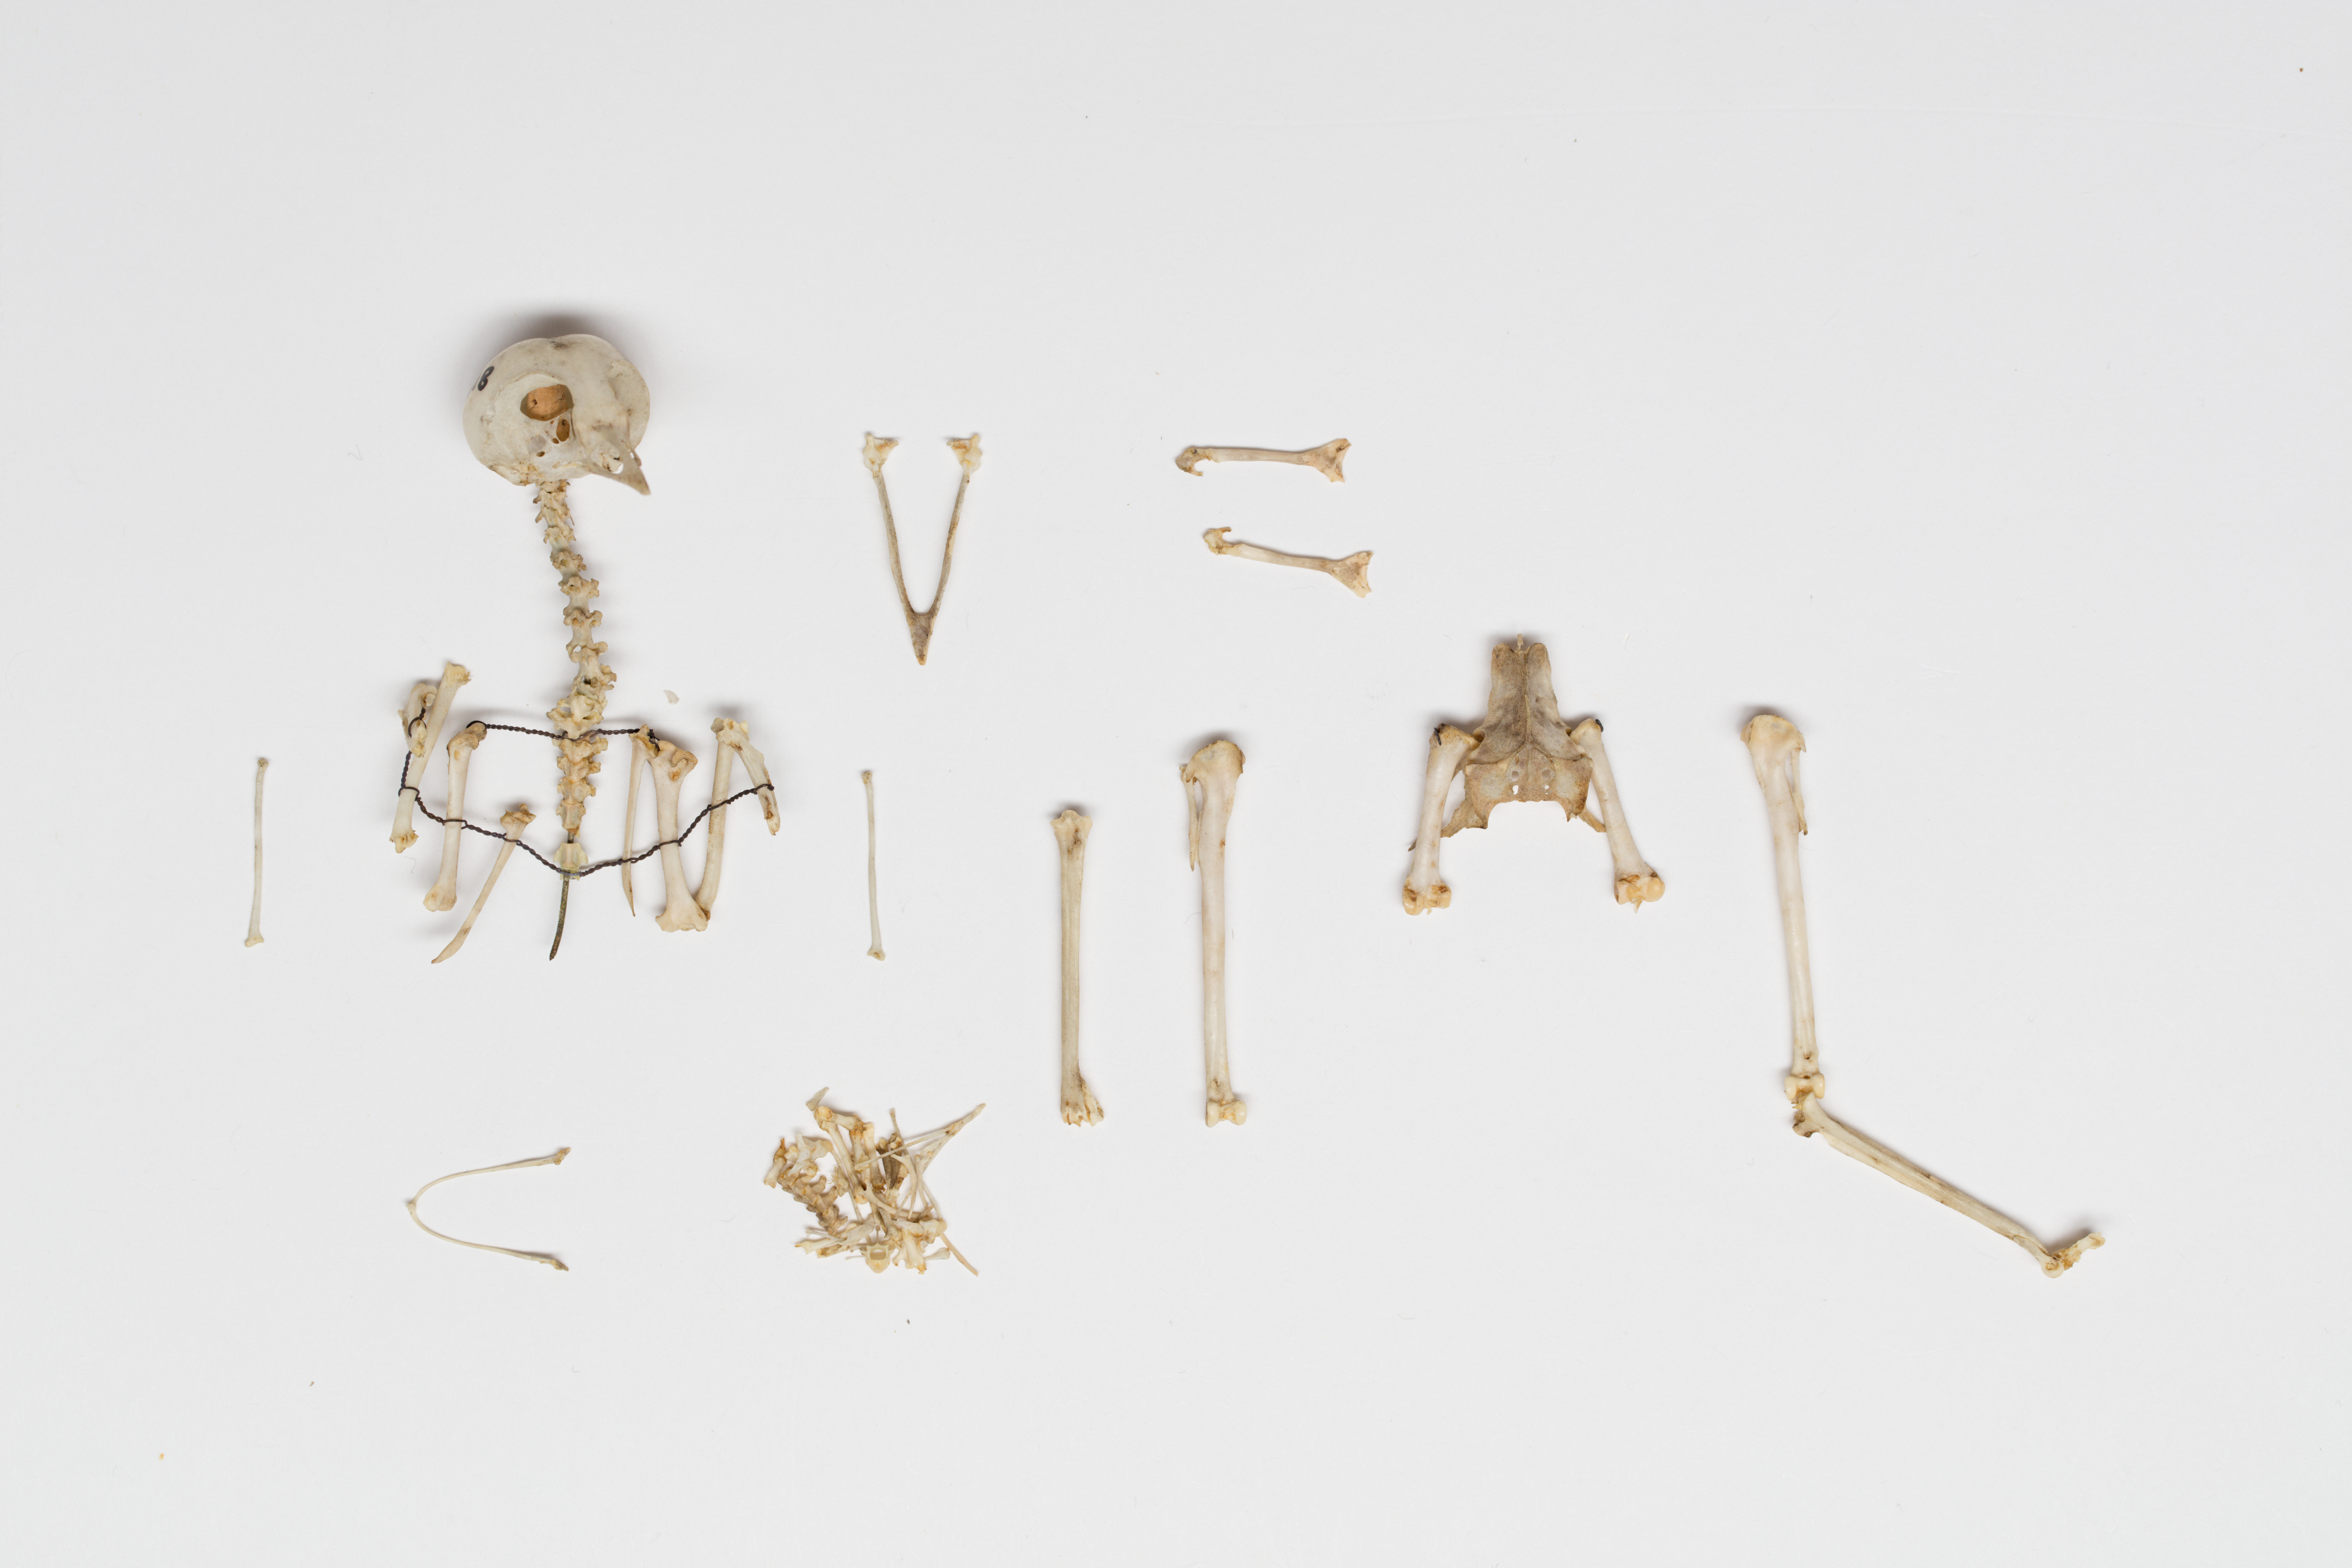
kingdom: Animalia
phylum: Chordata
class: Aves
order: Passeriformes
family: Acanthizidae
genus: Mohoua
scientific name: Mohoua ochrocephala
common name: Yellowhead
